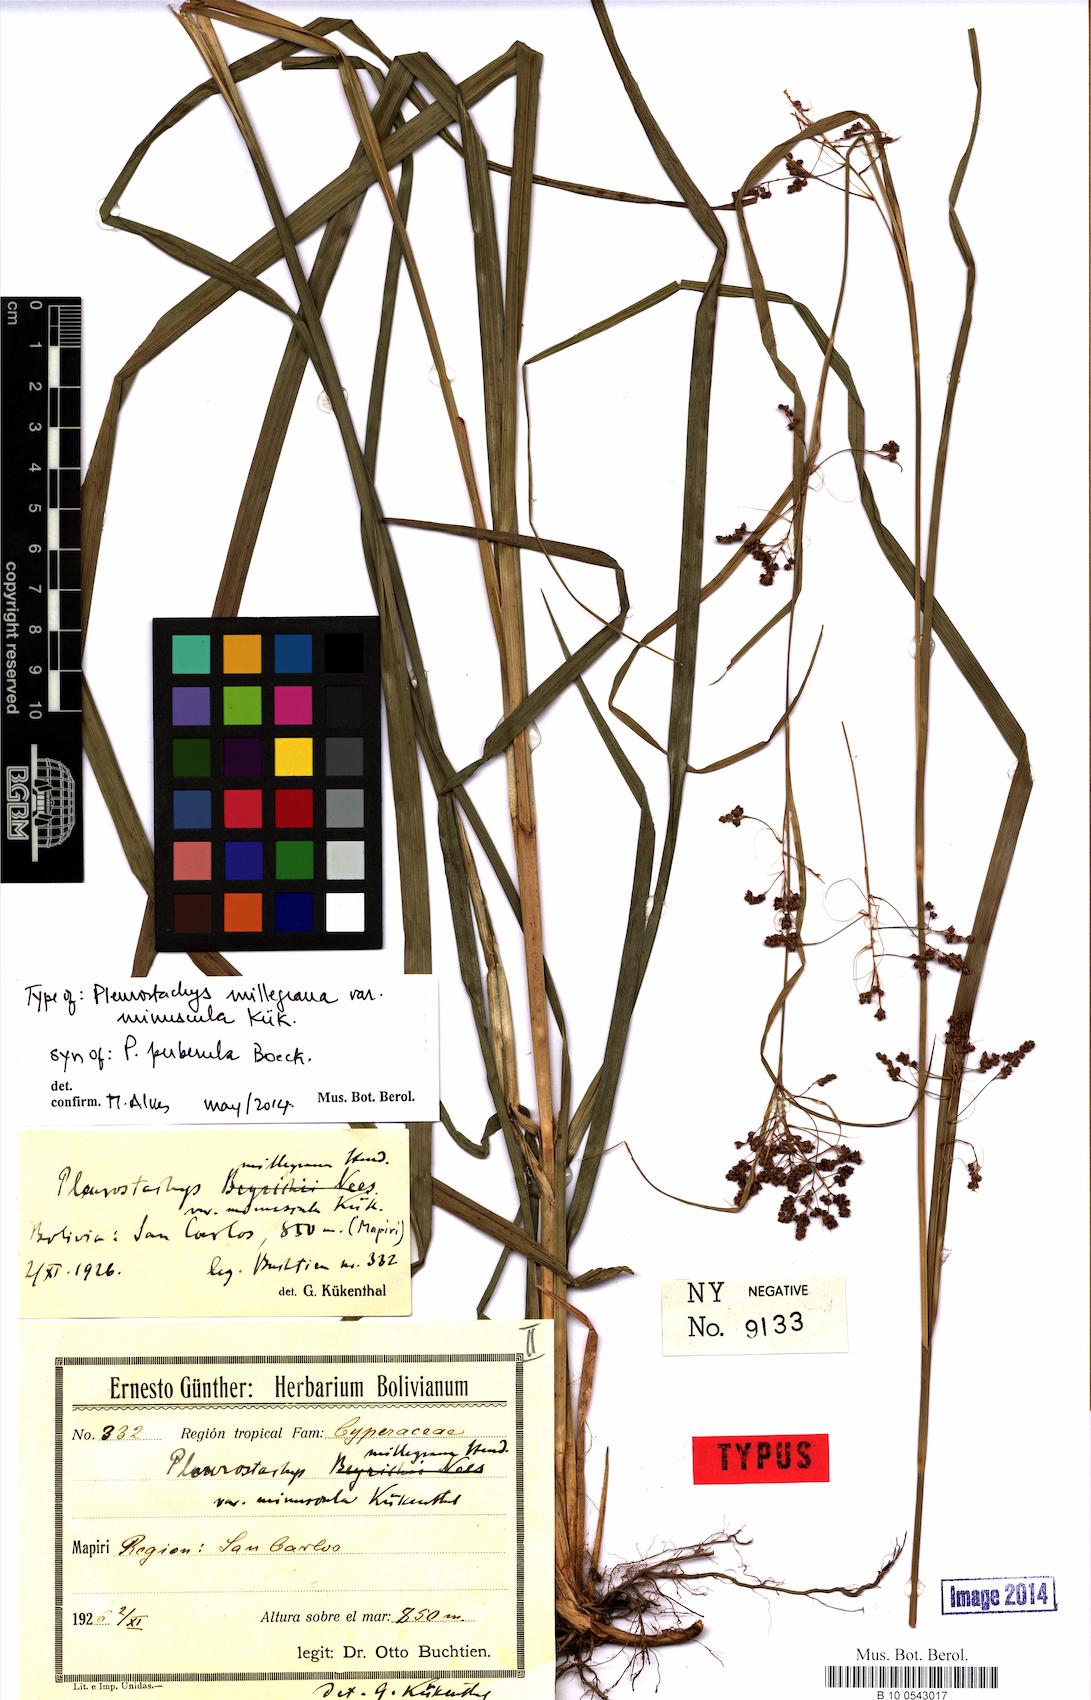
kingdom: Plantae
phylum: Tracheophyta
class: Liliopsida
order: Poales
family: Cyperaceae
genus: Rhynchospora
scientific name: Rhynchospora orbignyana
